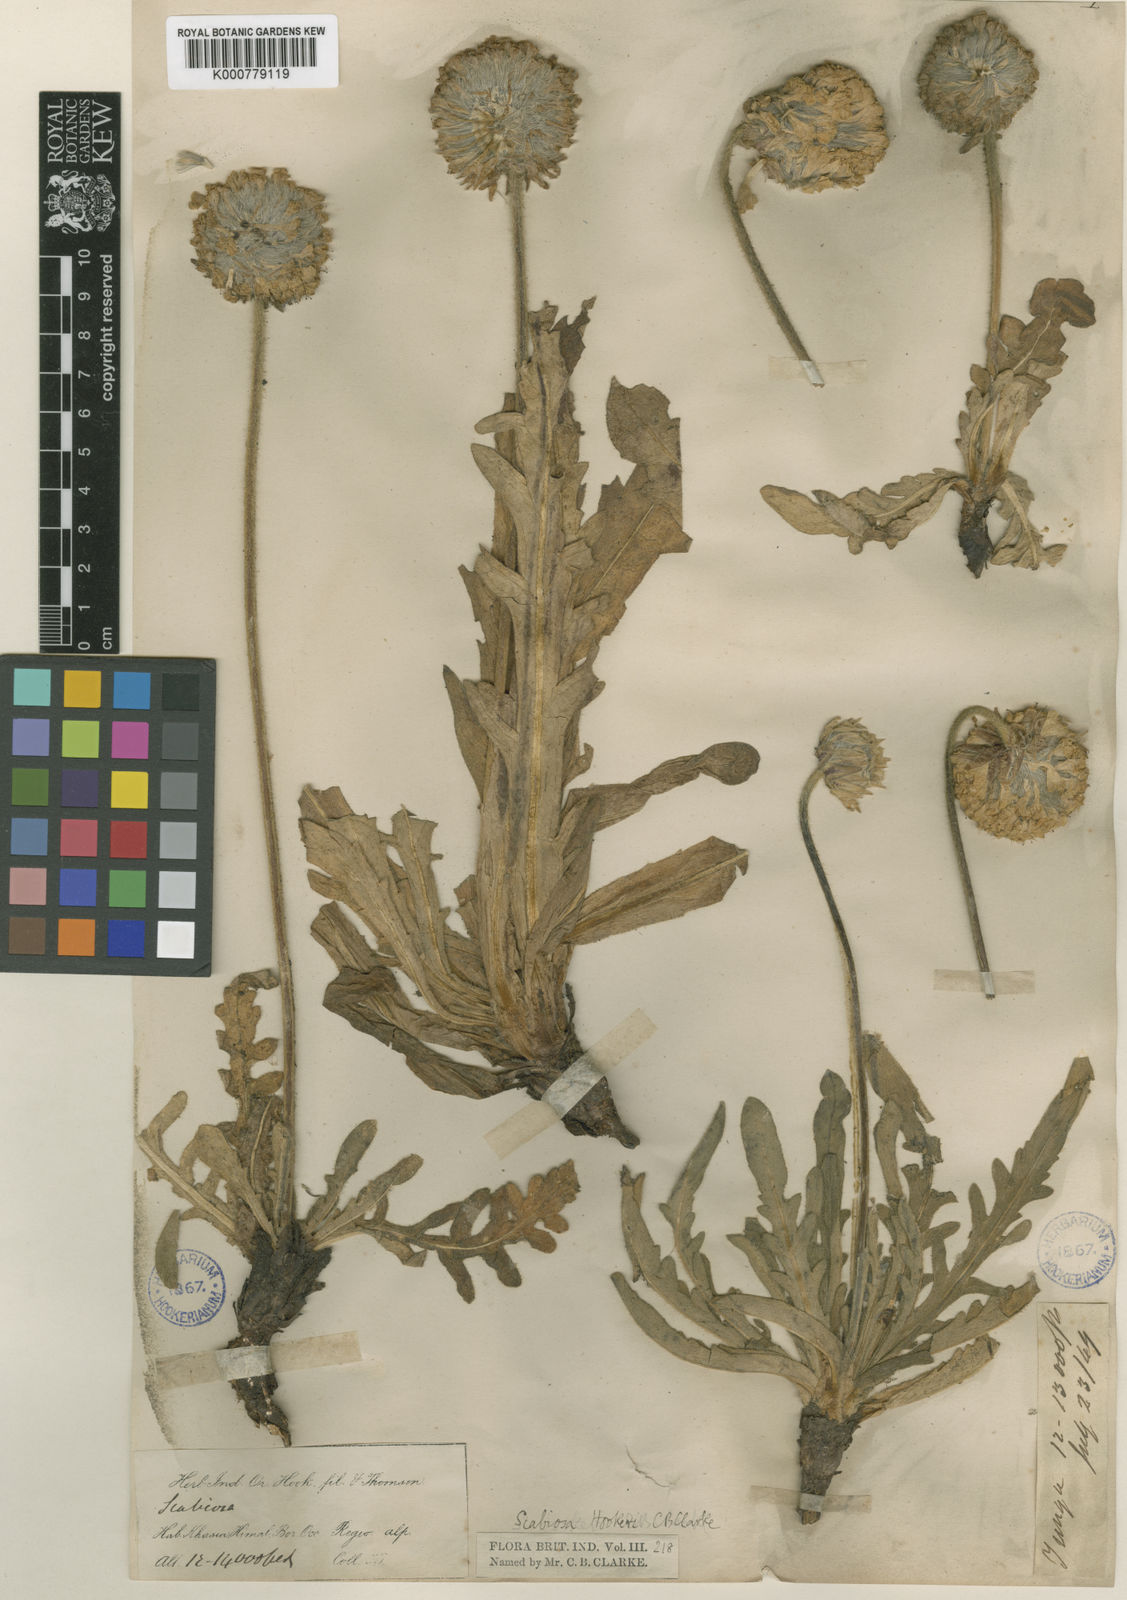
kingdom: Plantae
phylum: Tracheophyta
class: Magnoliopsida
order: Dipsacales
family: Caprifoliaceae
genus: Bassecoia
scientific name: Bassecoia hookeri
